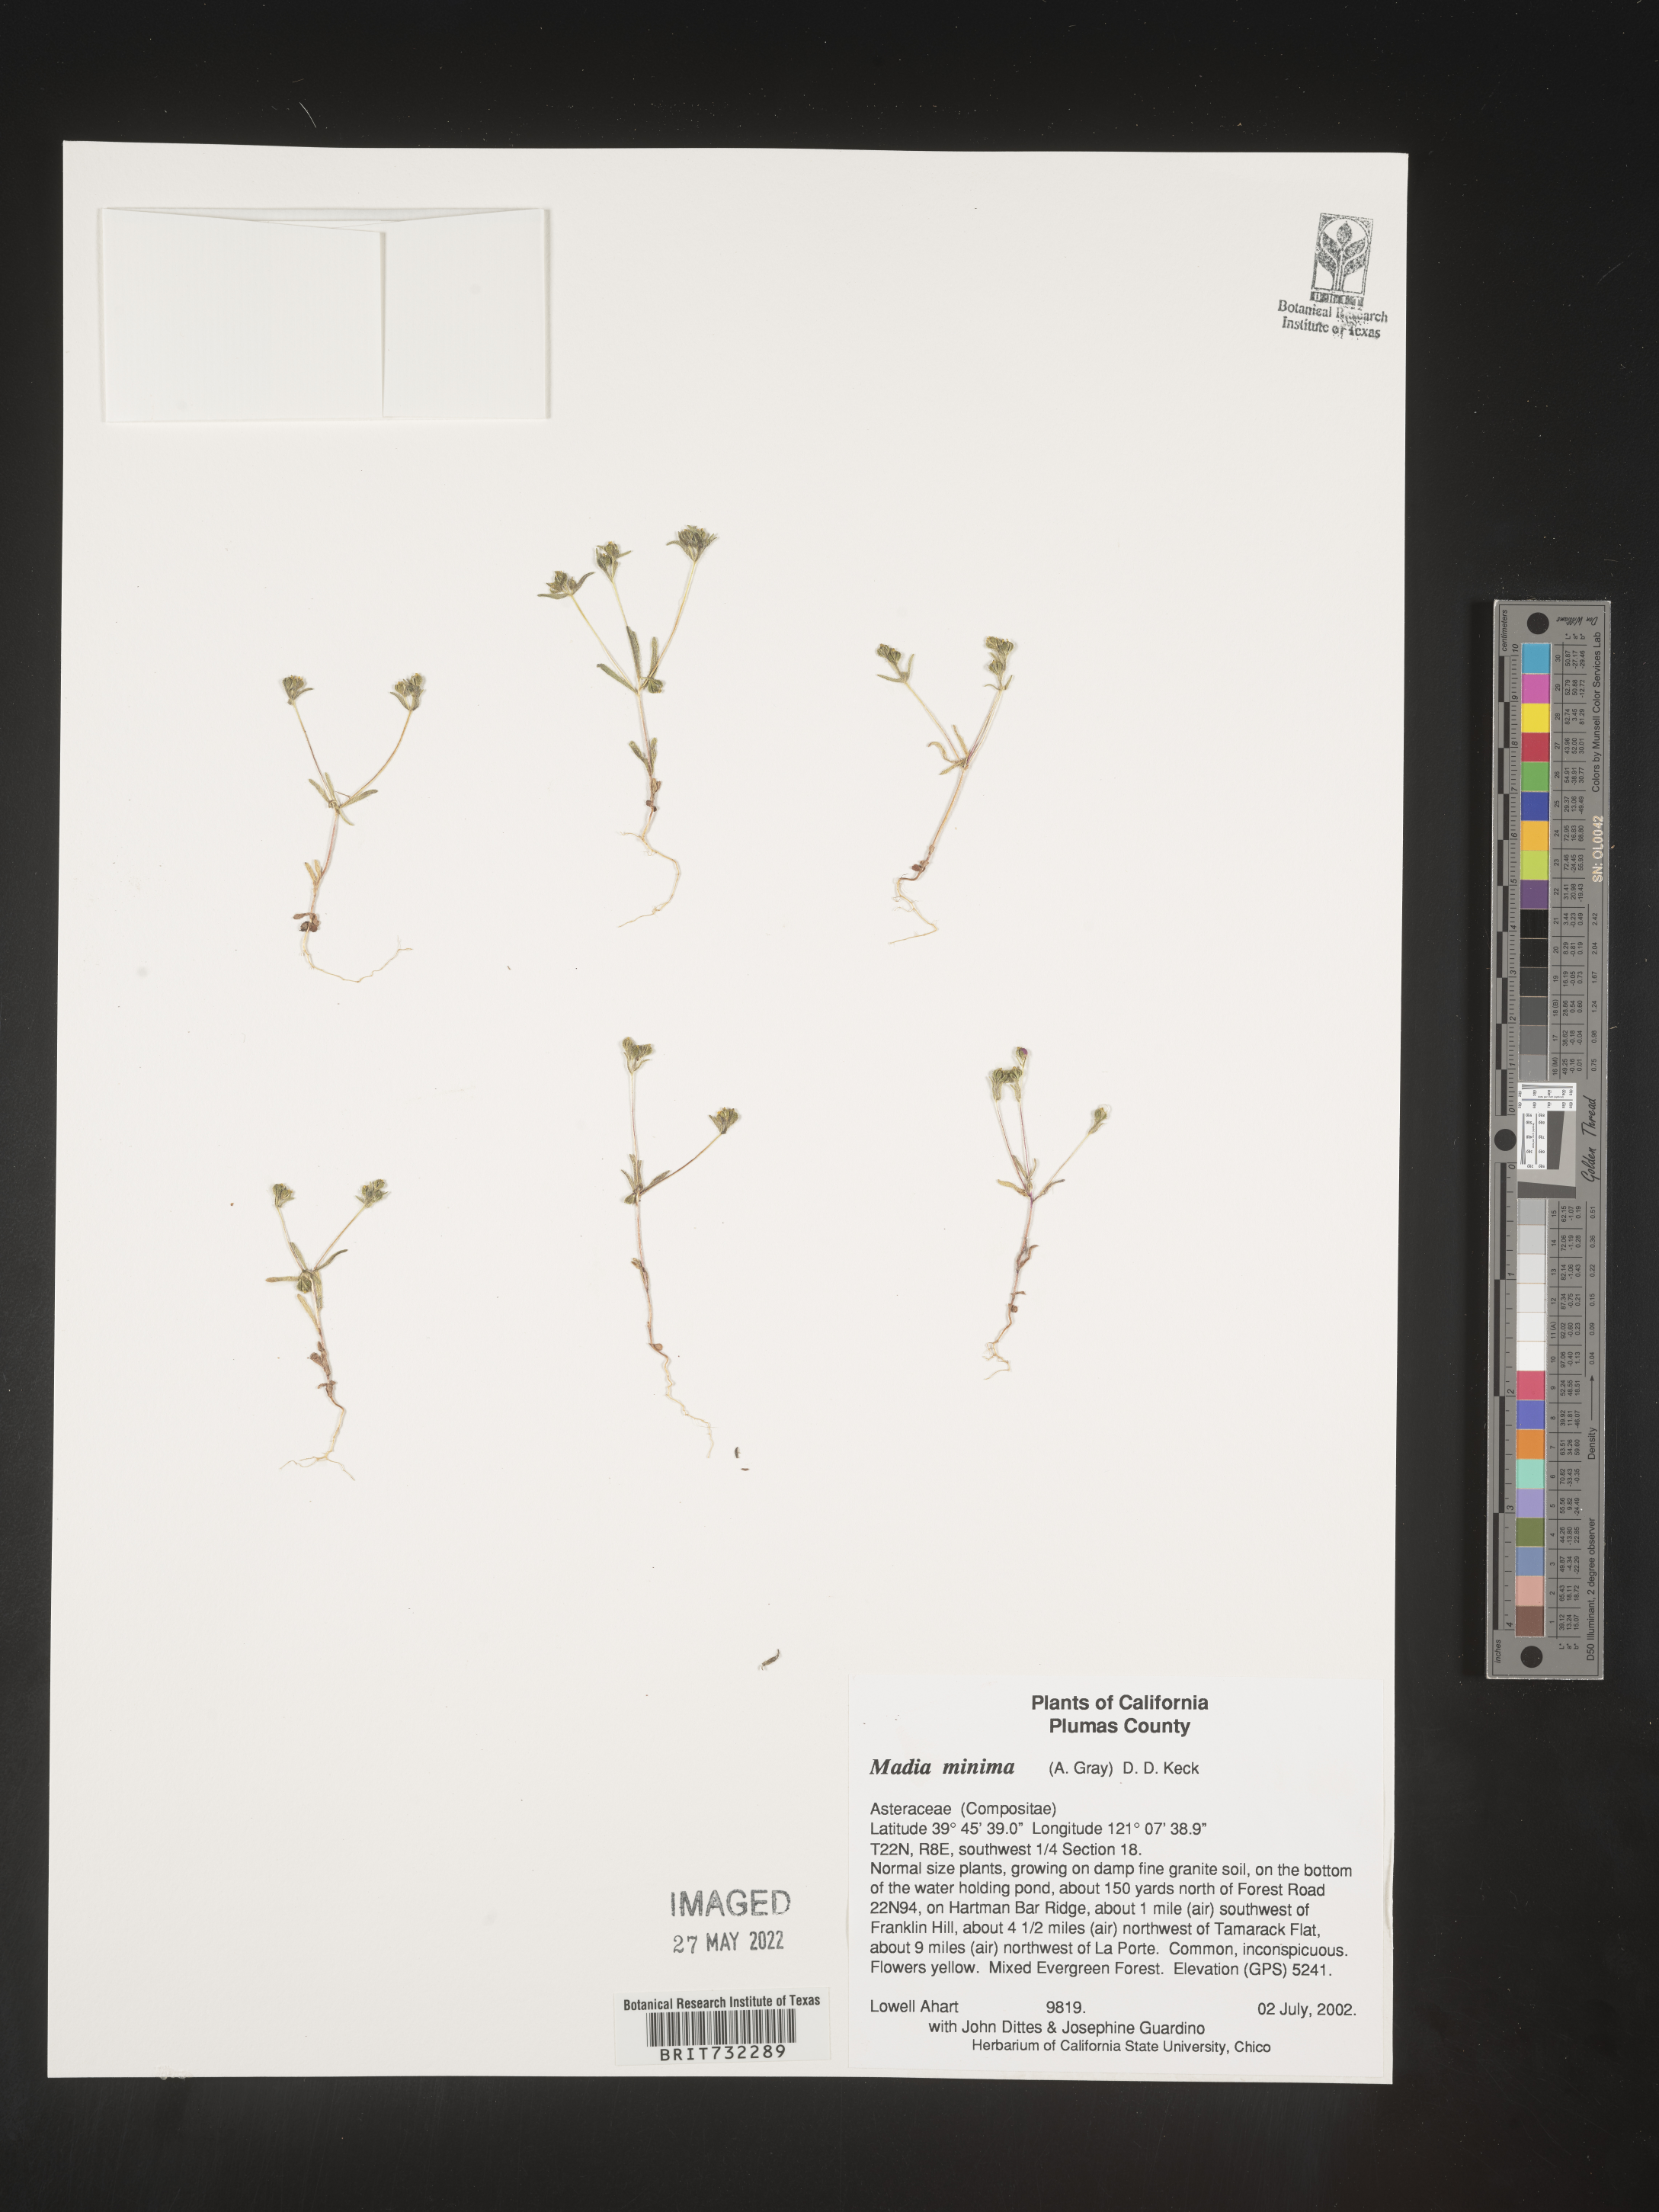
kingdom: Plantae
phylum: Tracheophyta
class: Magnoliopsida
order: Asterales
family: Asteraceae
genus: Madia
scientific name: Madia
